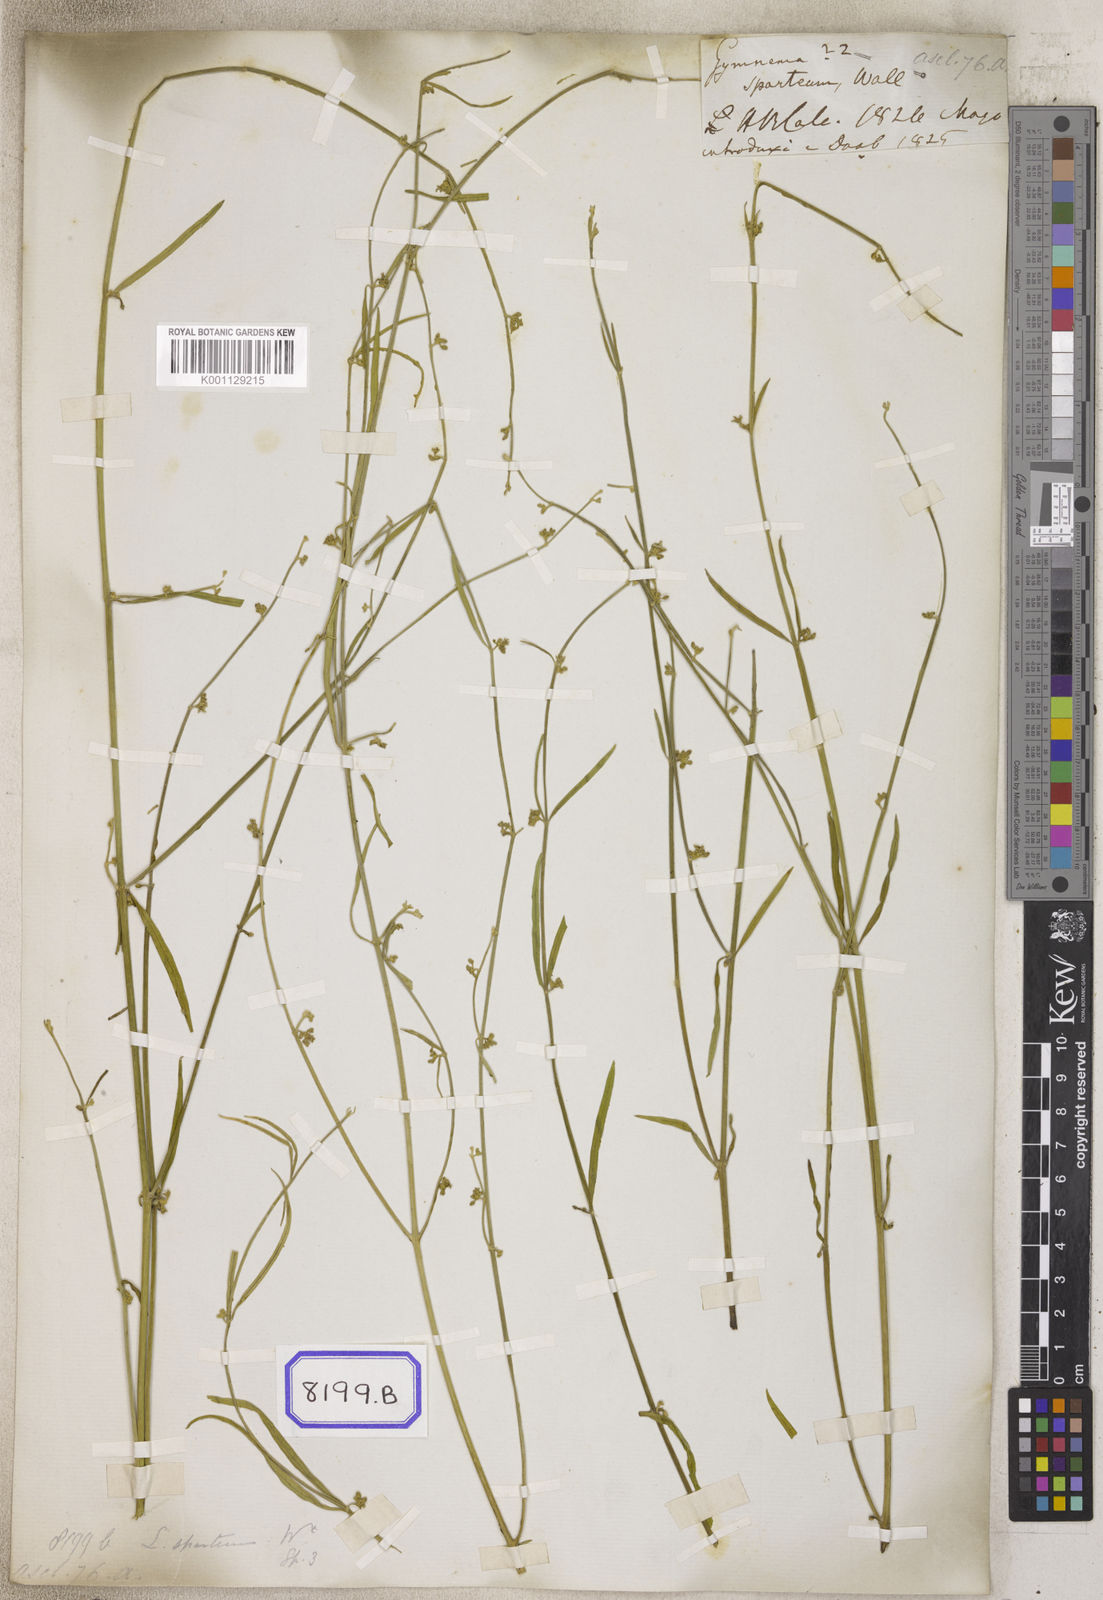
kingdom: Plantae
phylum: Tracheophyta
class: Magnoliopsida
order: Gentianales
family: Apocynaceae
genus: Leptadenia
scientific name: Leptadenia pyrotechnica
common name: Broom brush
